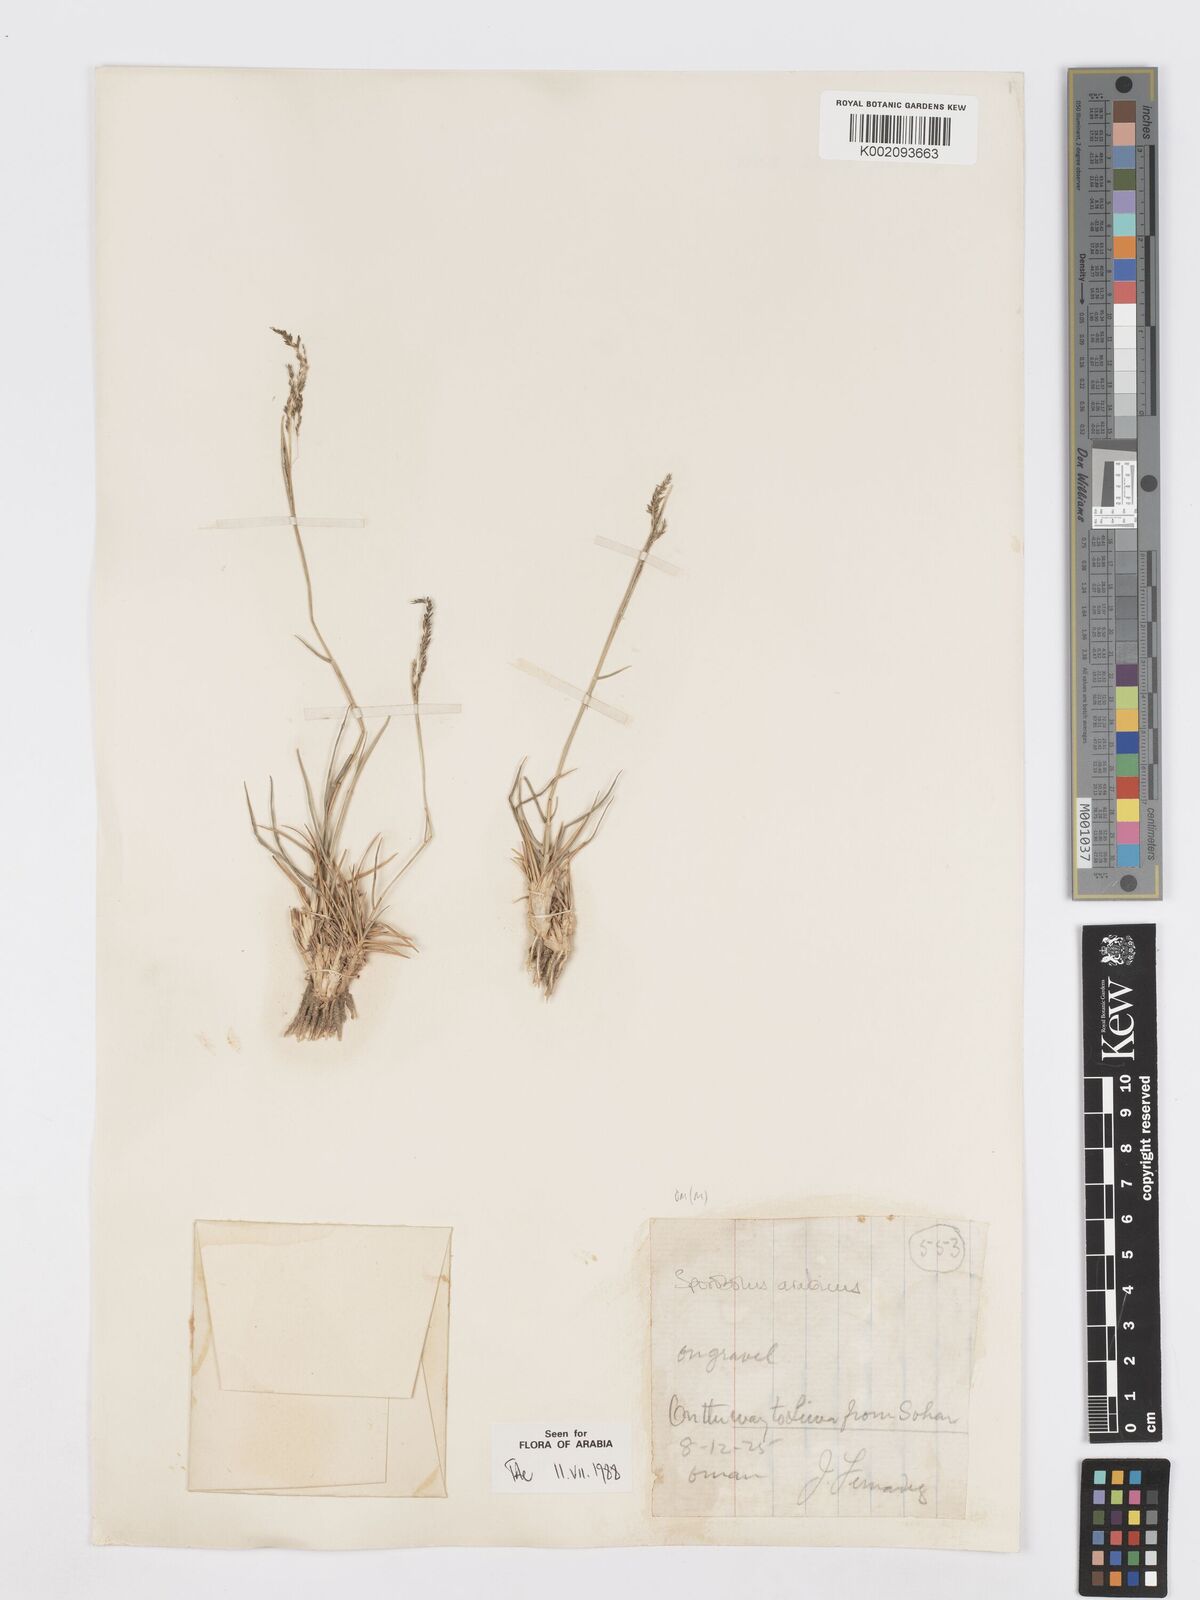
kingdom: Plantae
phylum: Tracheophyta
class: Liliopsida
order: Poales
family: Poaceae
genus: Sporobolus
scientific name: Sporobolus ioclados
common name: Pan dropseed
